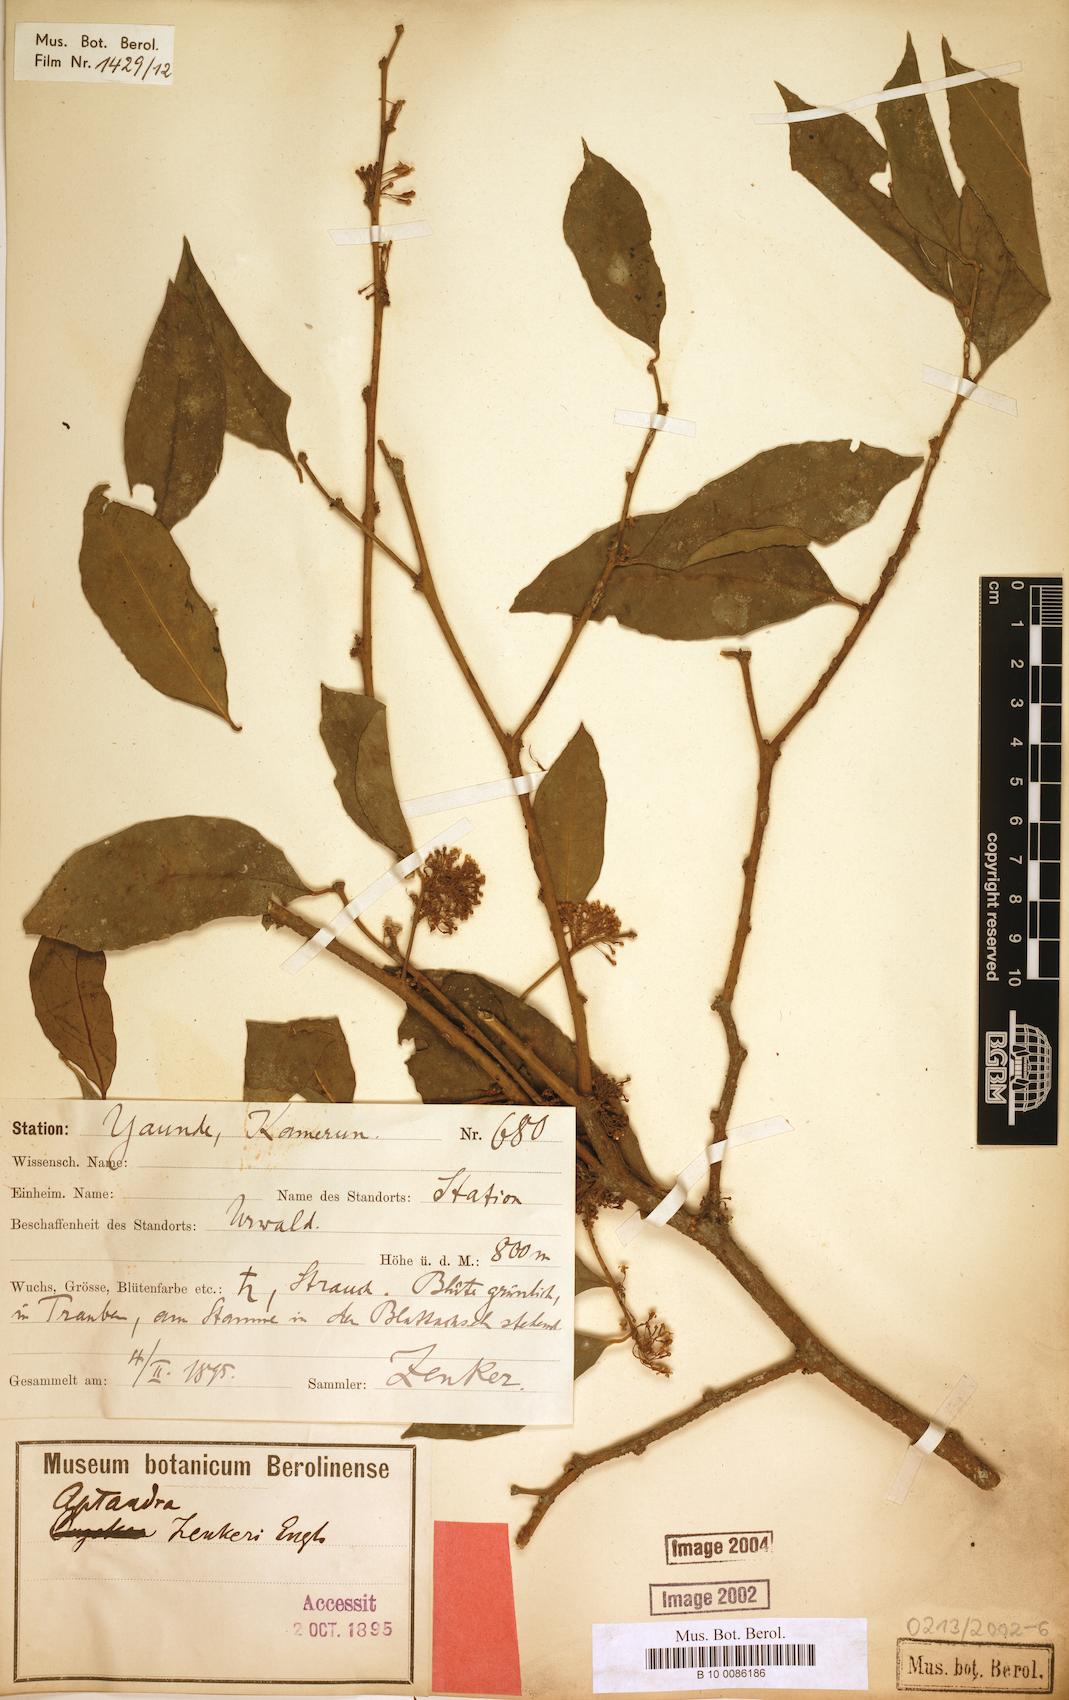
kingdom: Plantae
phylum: Tracheophyta
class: Magnoliopsida
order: Santalales
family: Aptandraceae
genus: Aptandra
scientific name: Aptandra zenkeri
